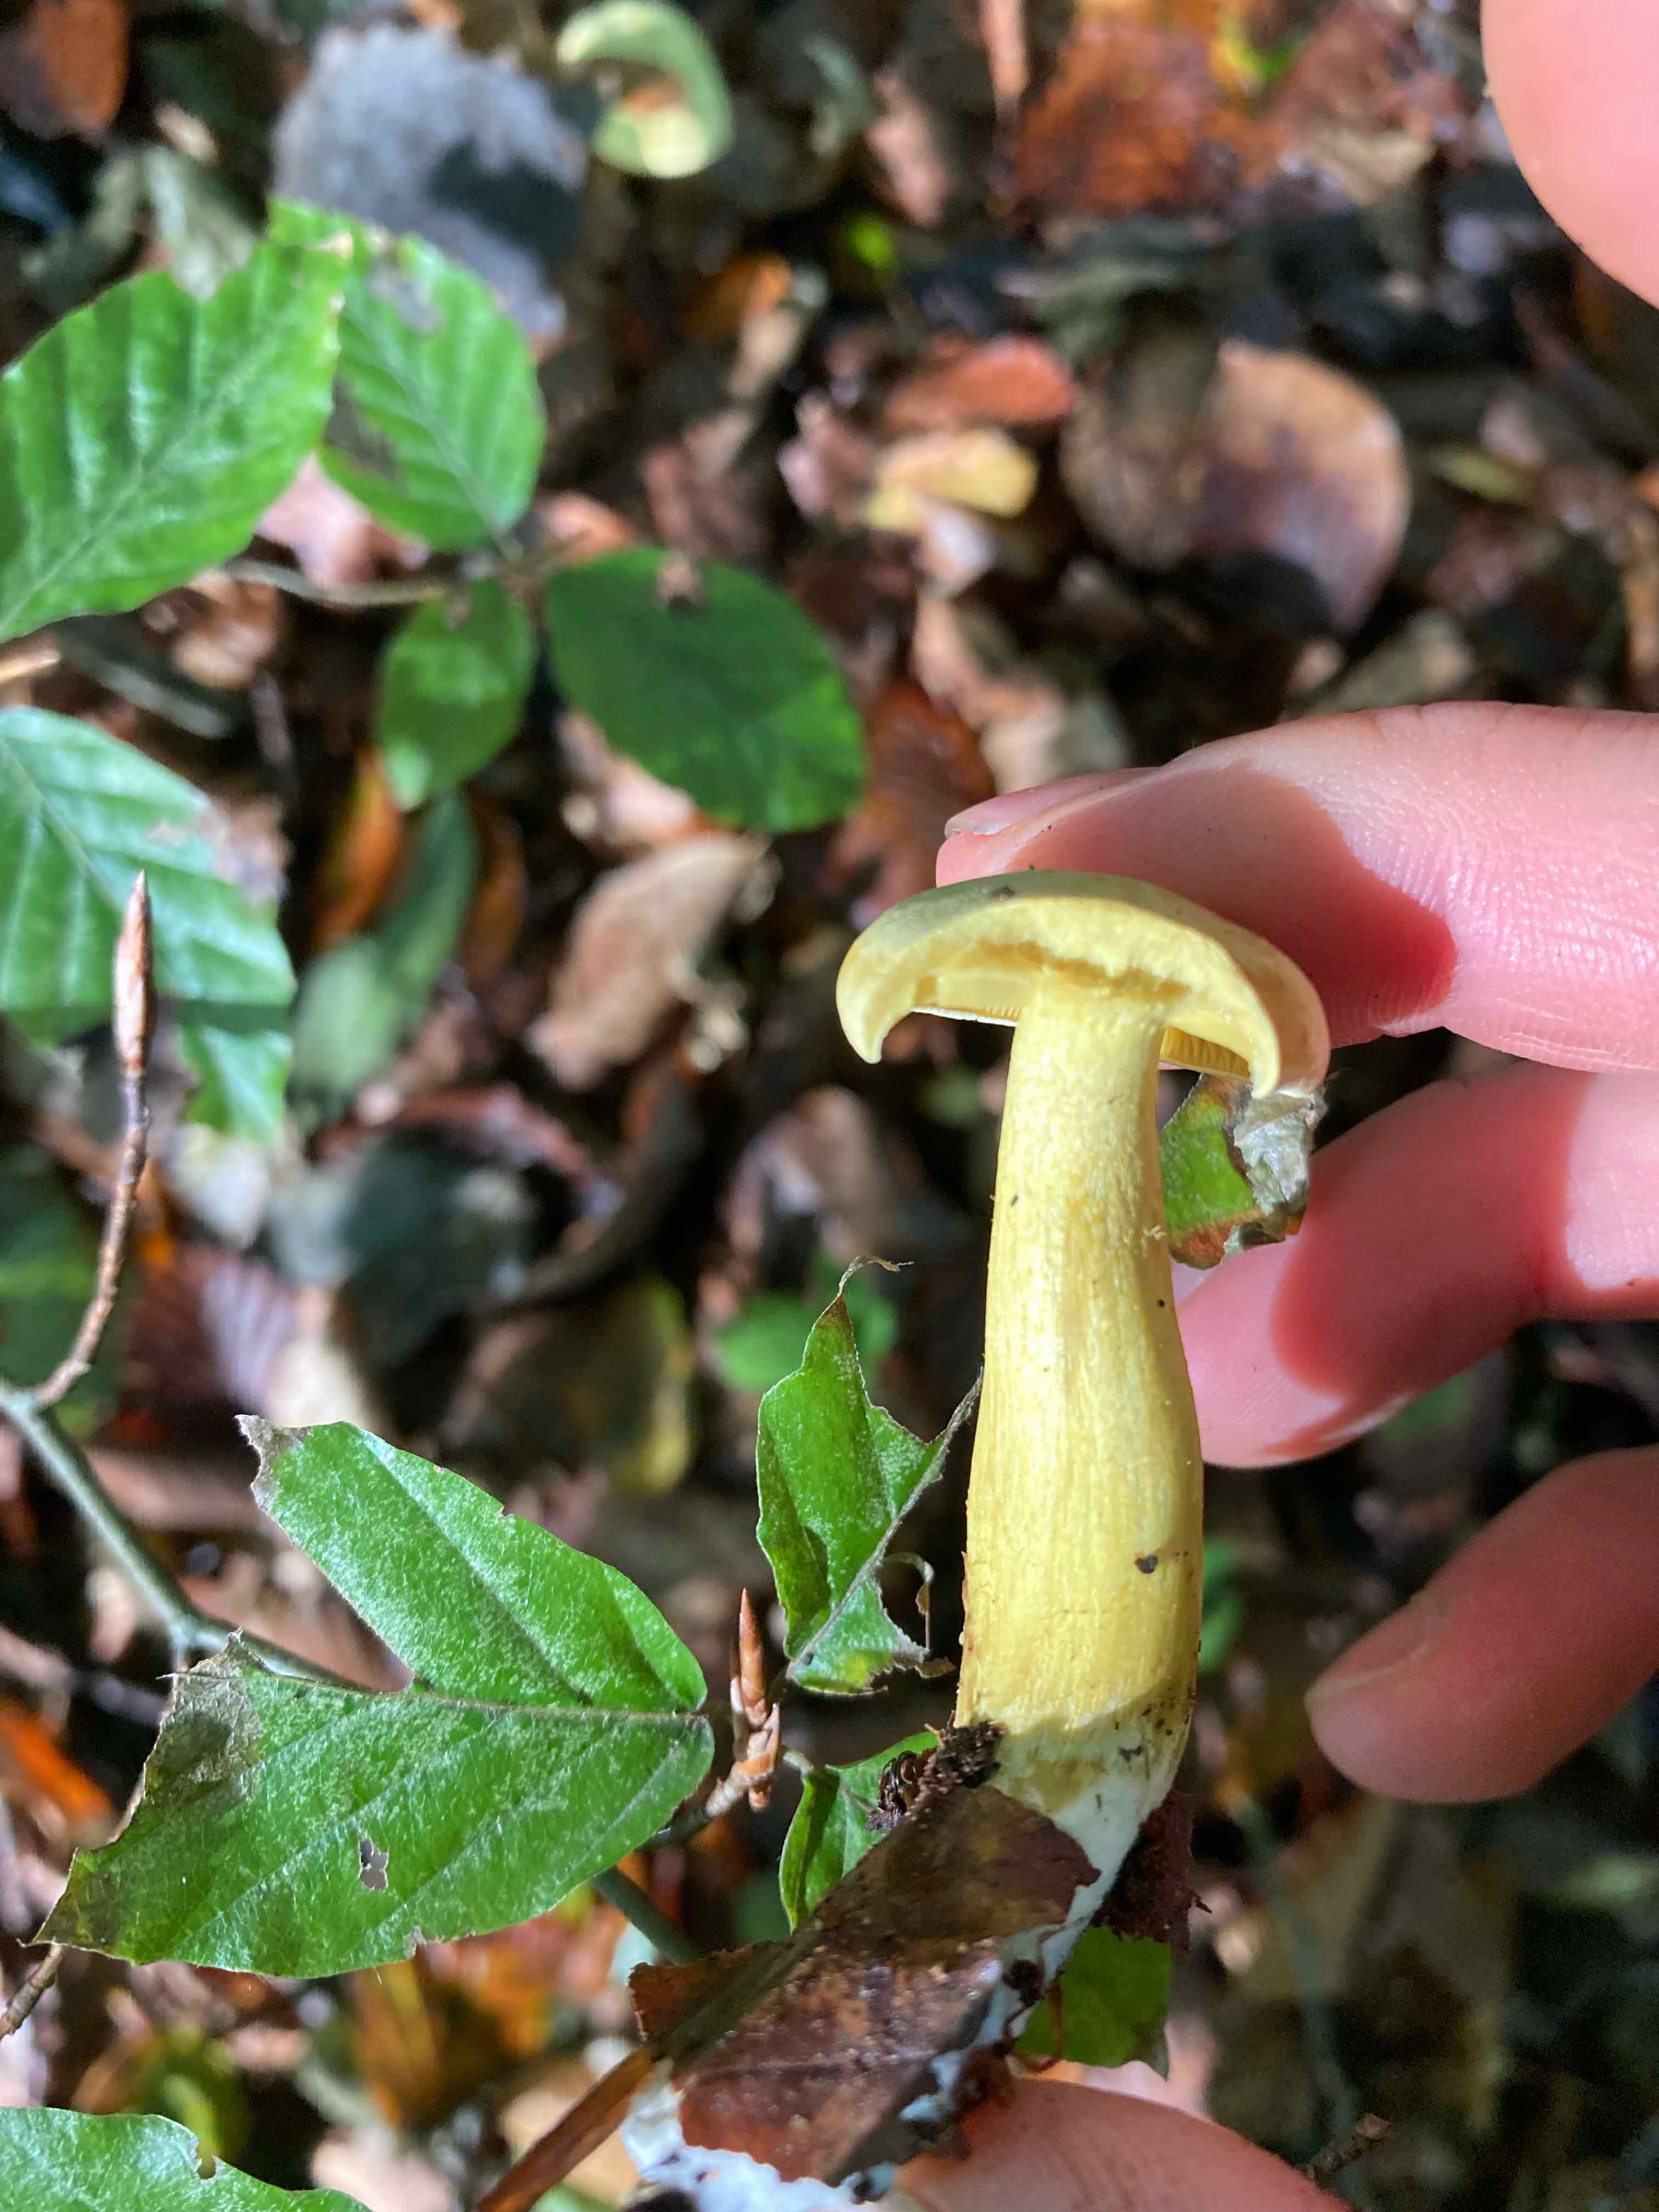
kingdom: Fungi
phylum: Basidiomycota
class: Agaricomycetes
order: Agaricales
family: Tricholomataceae
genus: Tricholoma
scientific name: Tricholoma sulphureum
